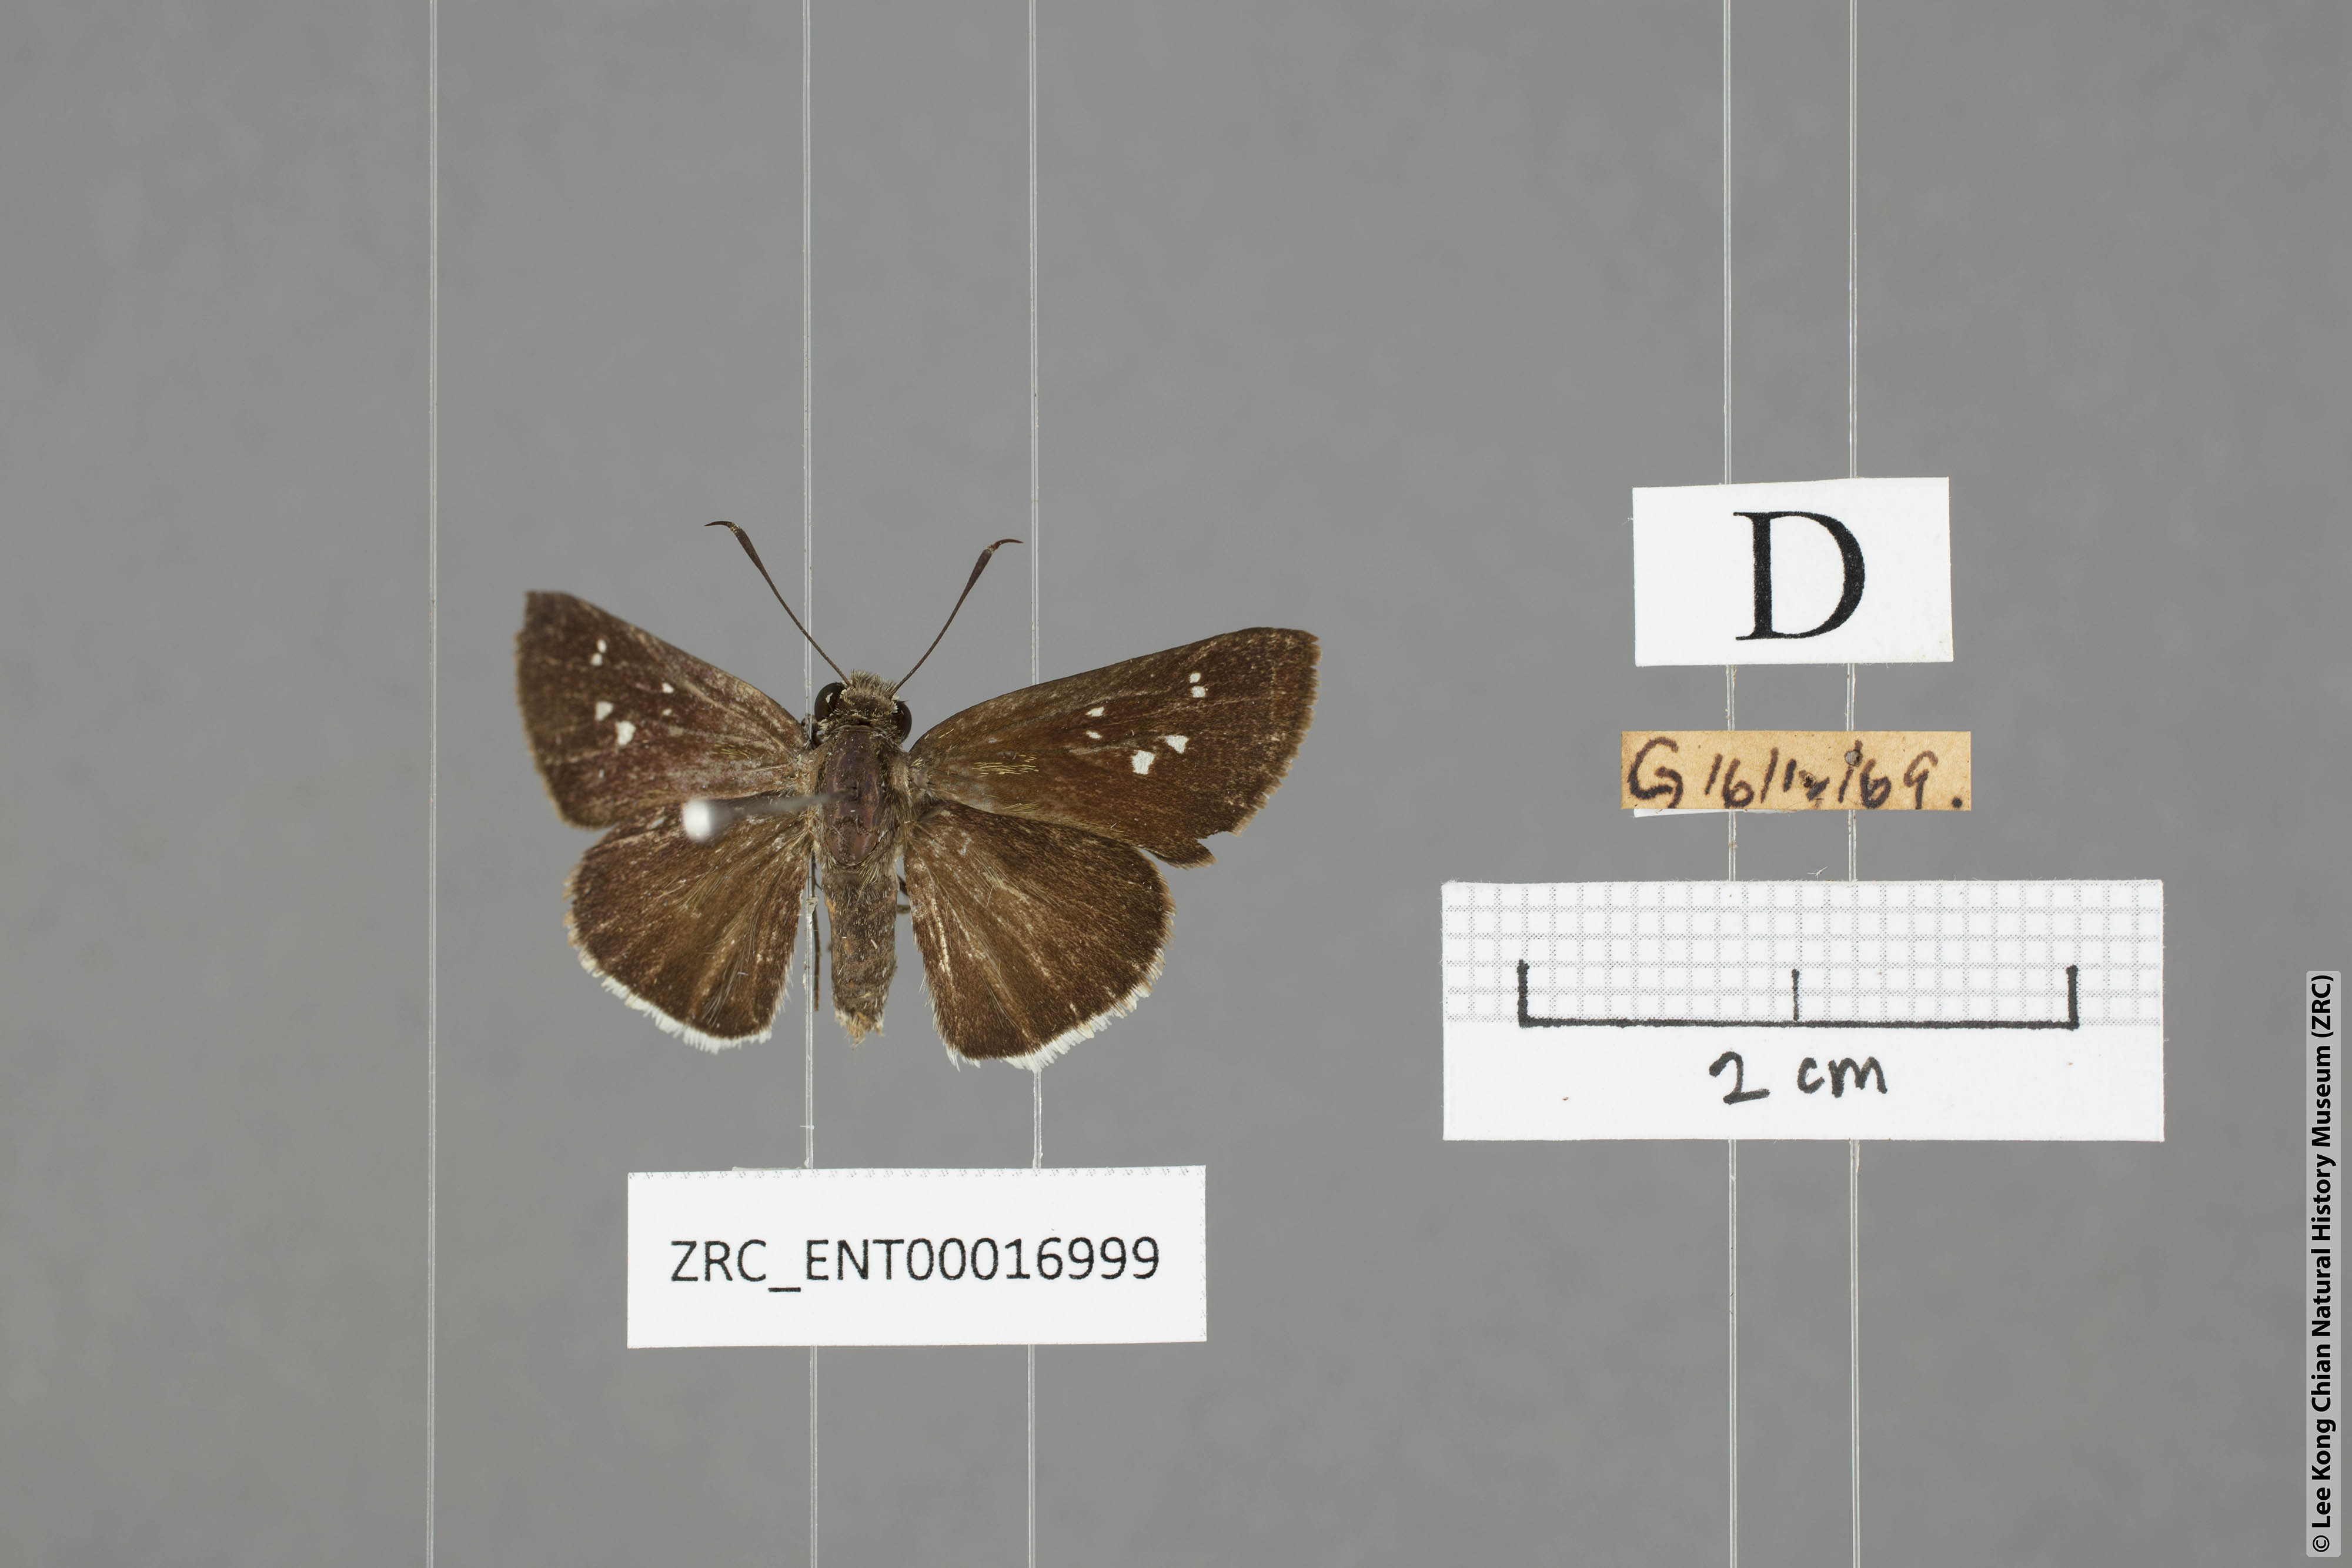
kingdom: Animalia
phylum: Arthropoda
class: Insecta
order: Lepidoptera
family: Hesperiidae
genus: Halpe
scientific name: Halpe insignis
